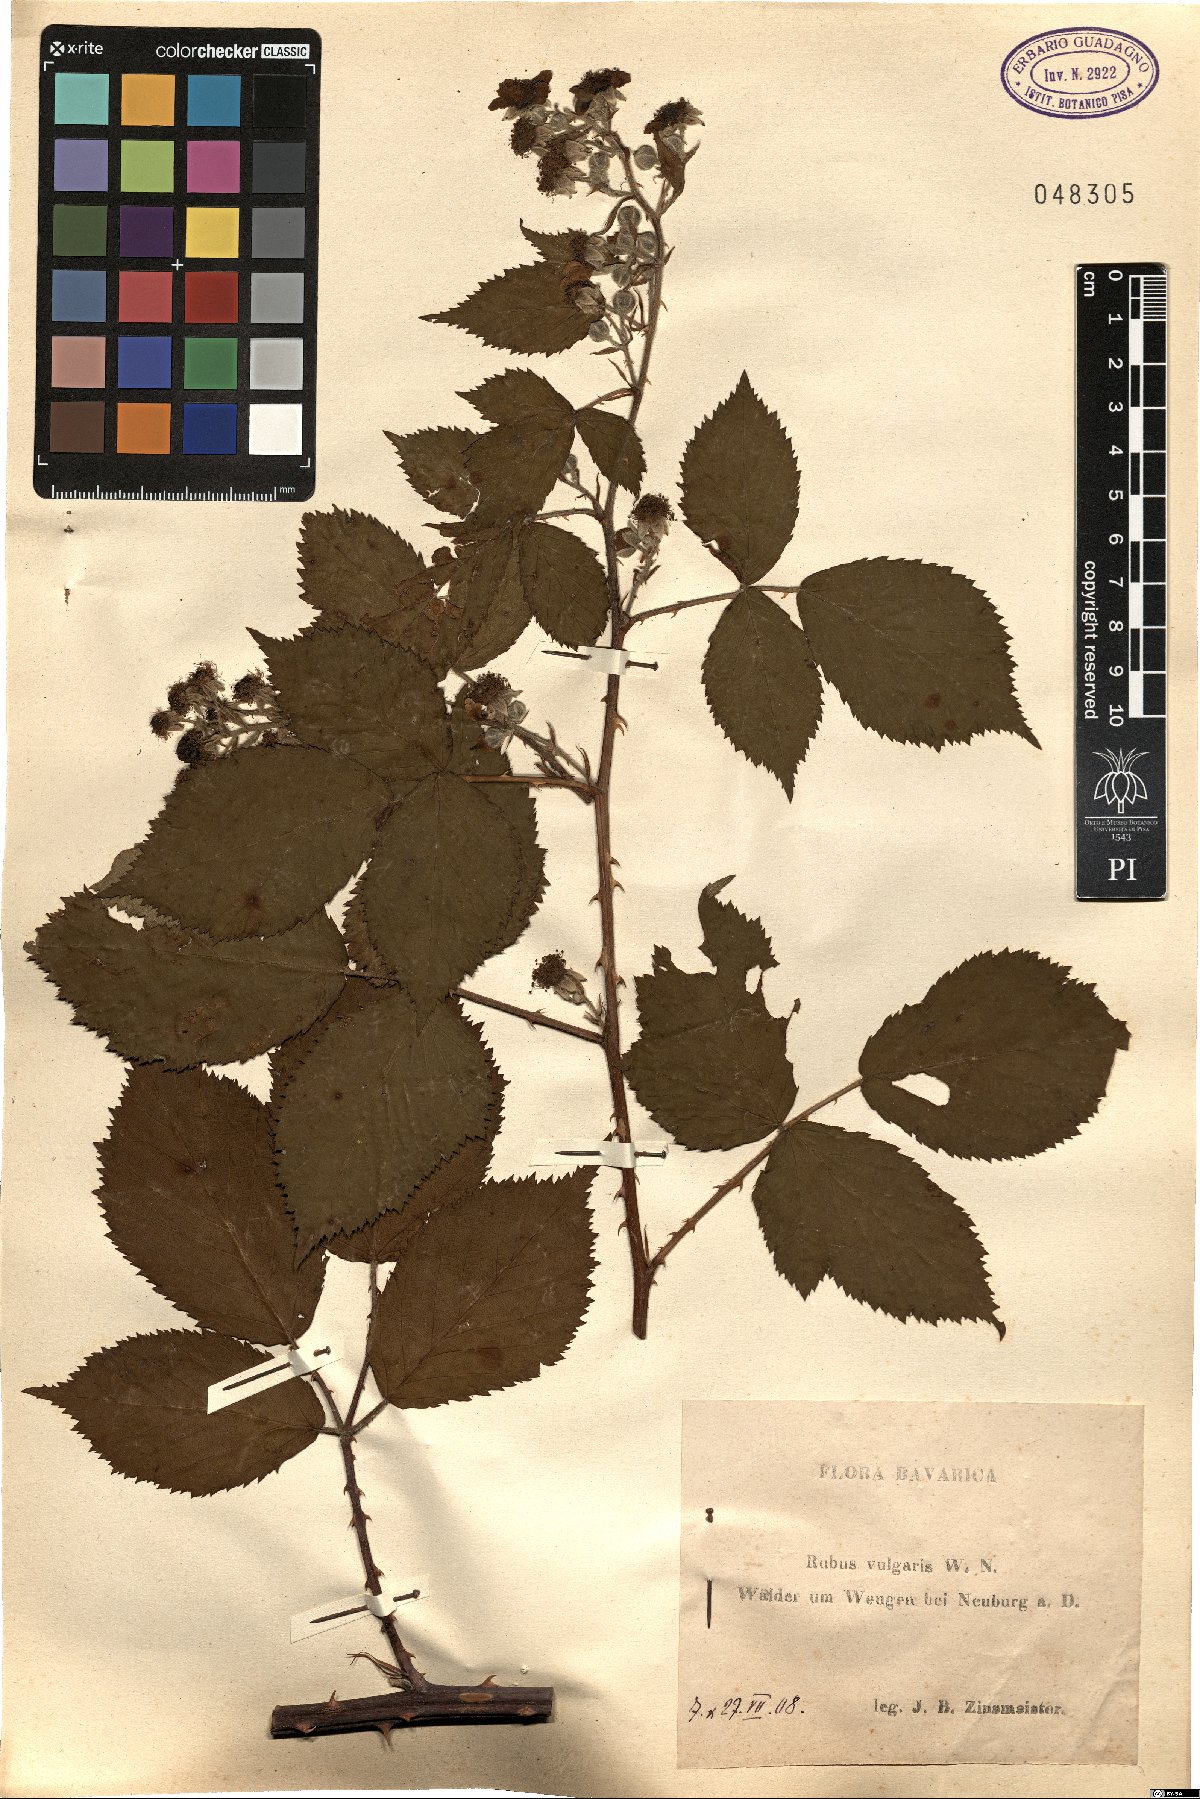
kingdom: Plantae
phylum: Tracheophyta
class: Magnoliopsida
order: Rosales
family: Rosaceae
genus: Rubus
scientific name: Rubus aschoffii
